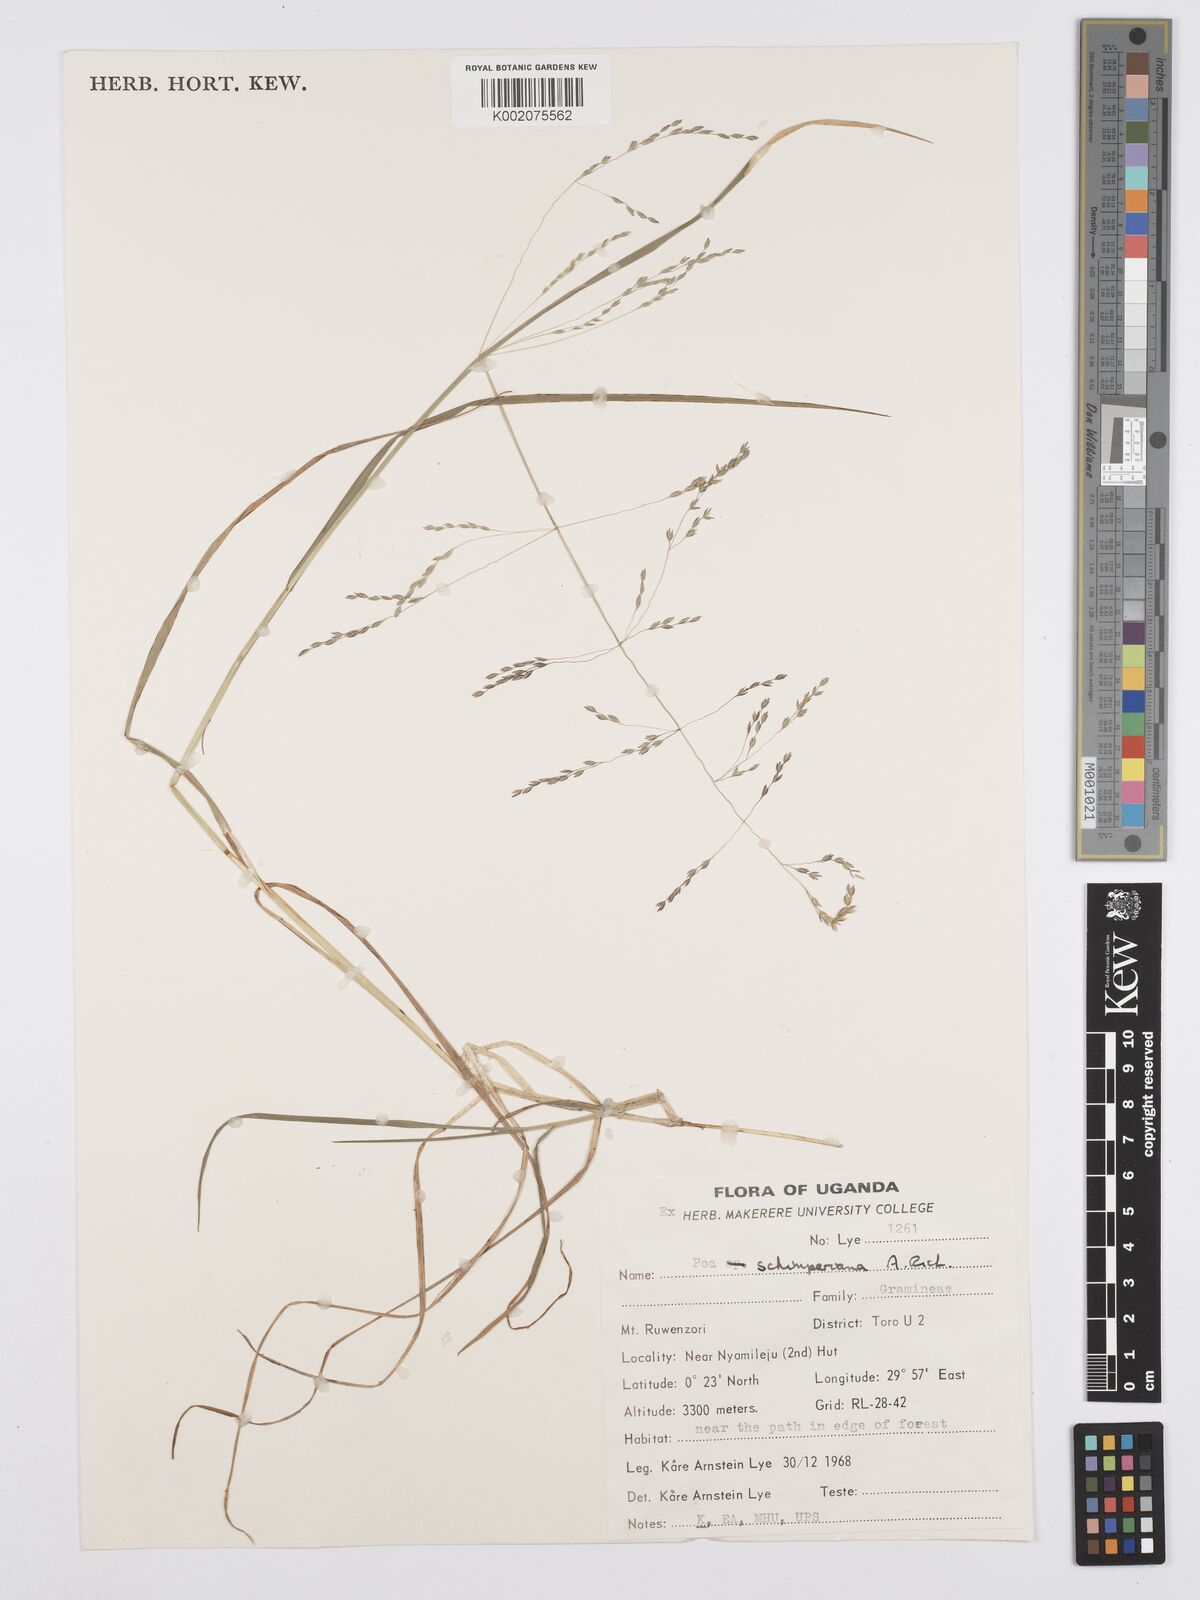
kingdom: Plantae
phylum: Tracheophyta
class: Liliopsida
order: Poales
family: Poaceae
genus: Poa
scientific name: Poa schimperiana
